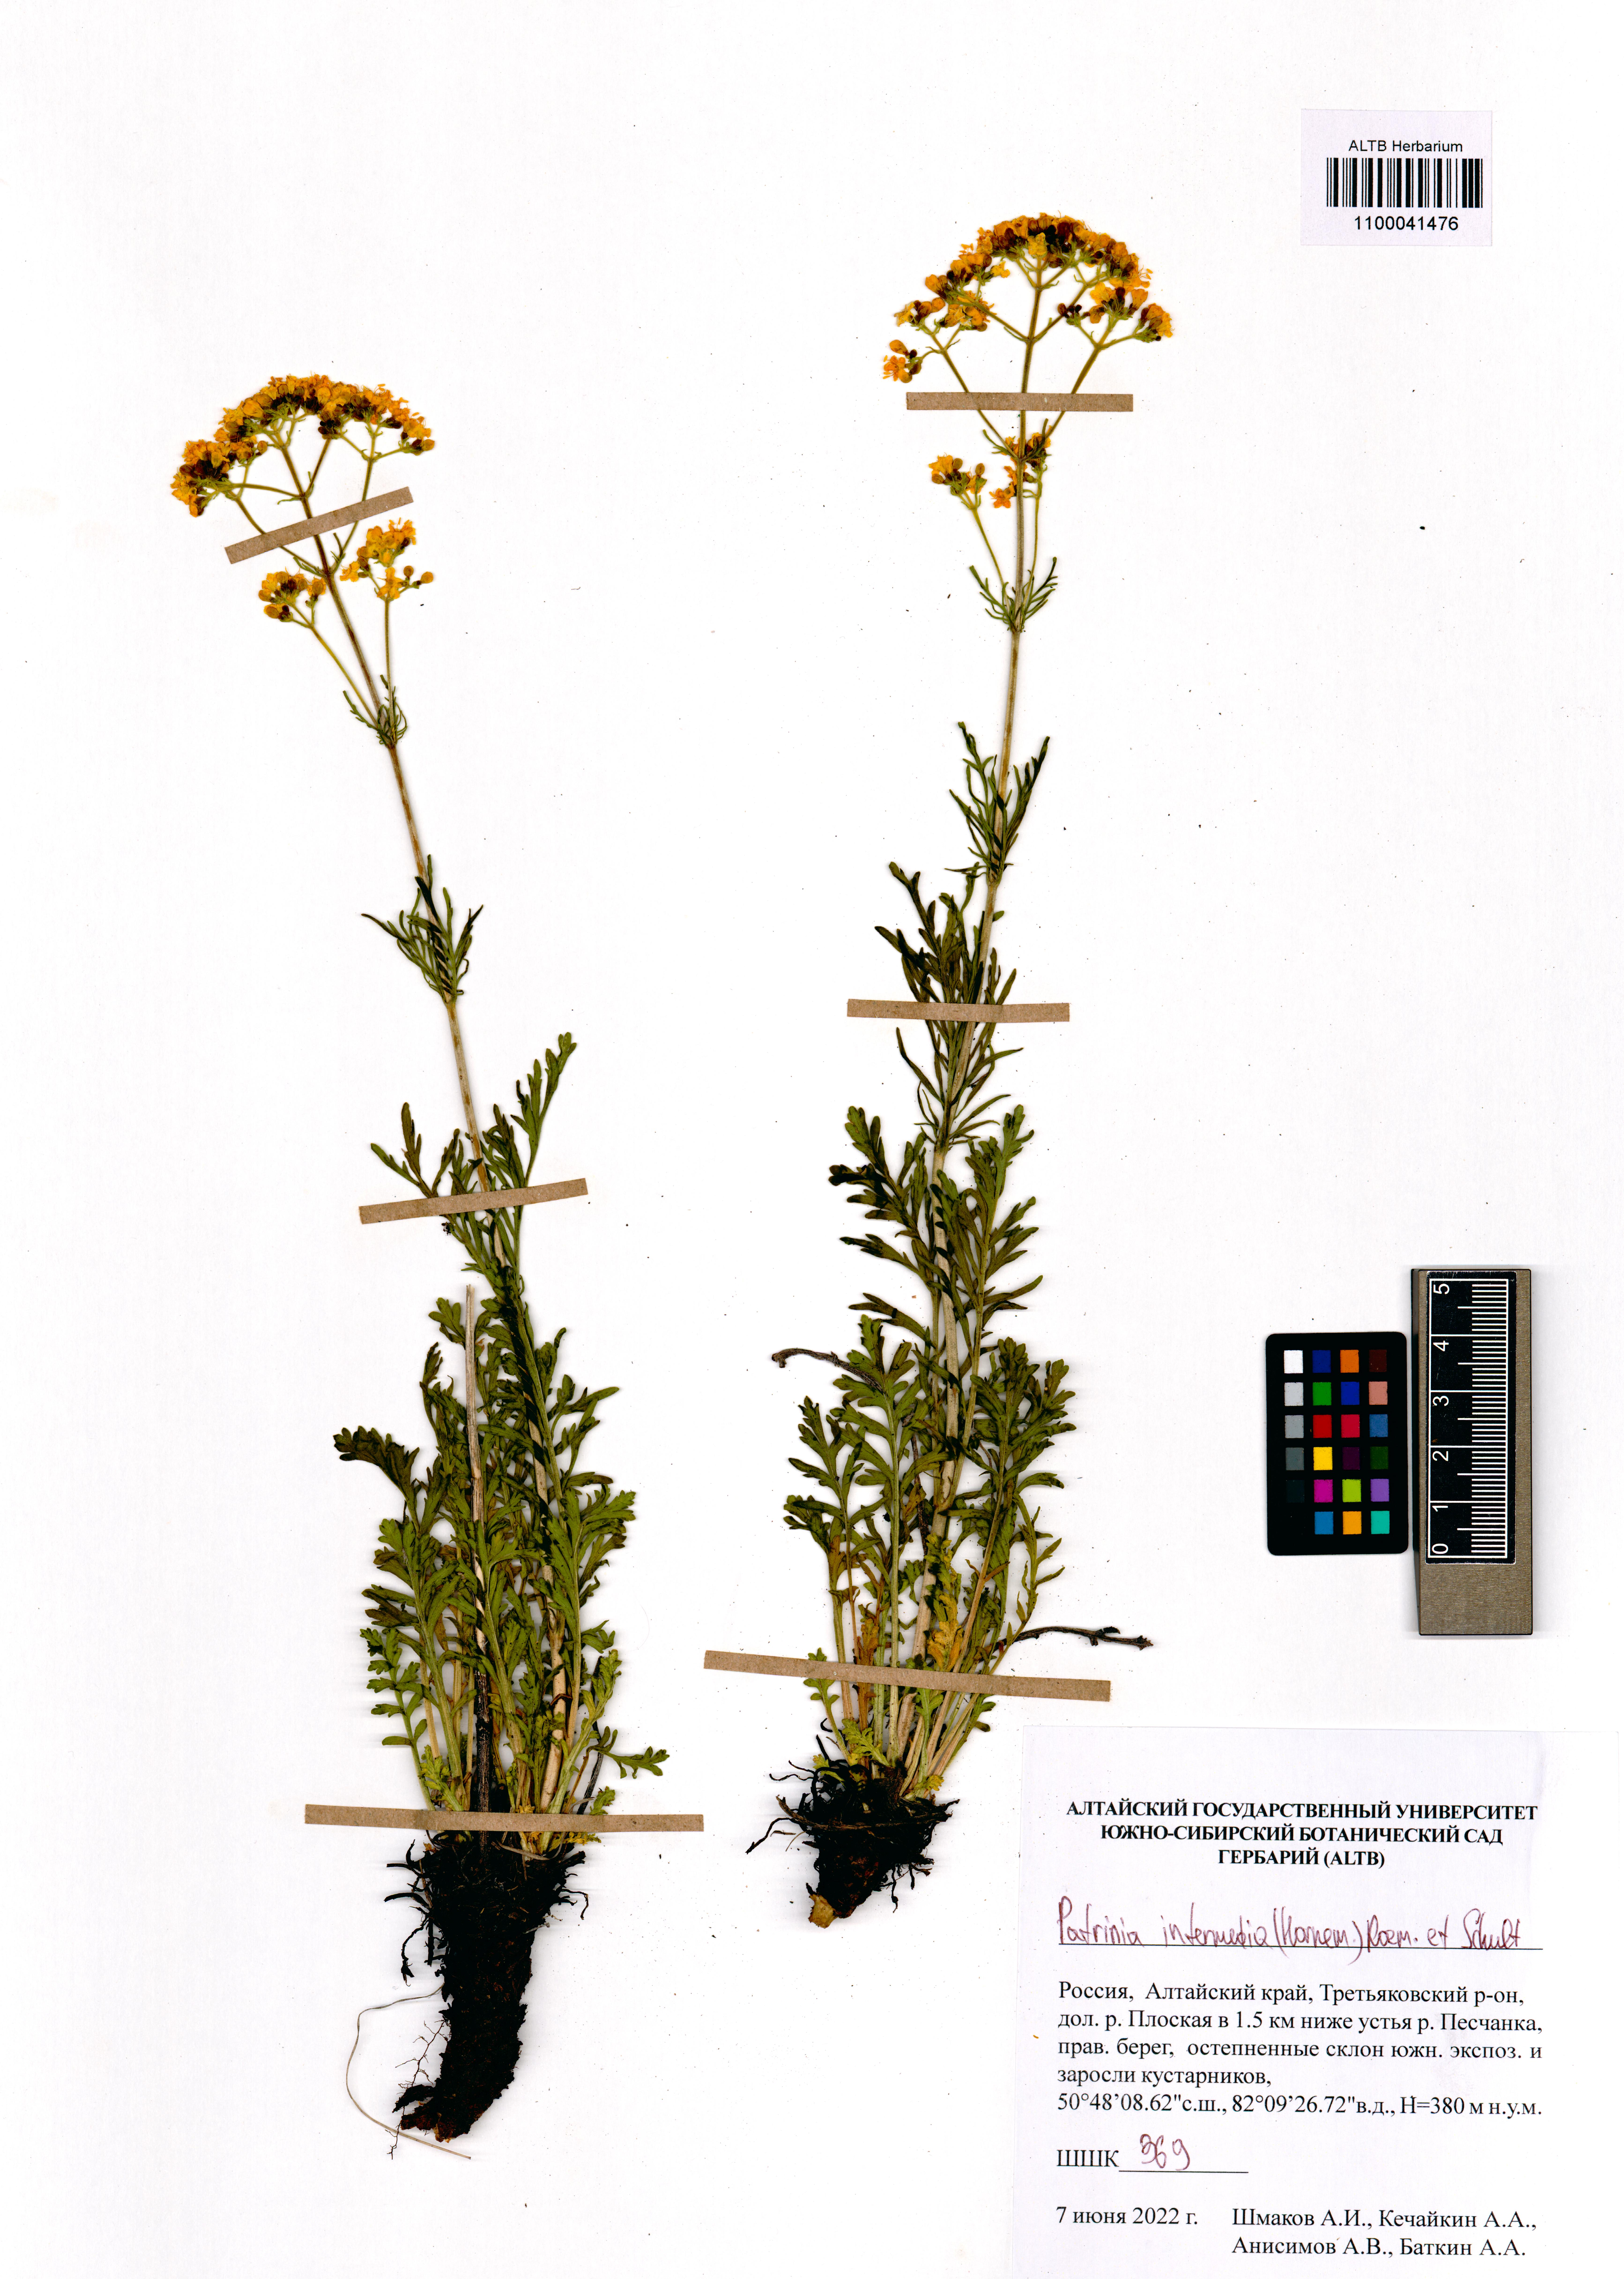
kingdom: Plantae
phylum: Tracheophyta
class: Magnoliopsida
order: Dipsacales
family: Caprifoliaceae
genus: Patrinia
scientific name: Patrinia intermedia
